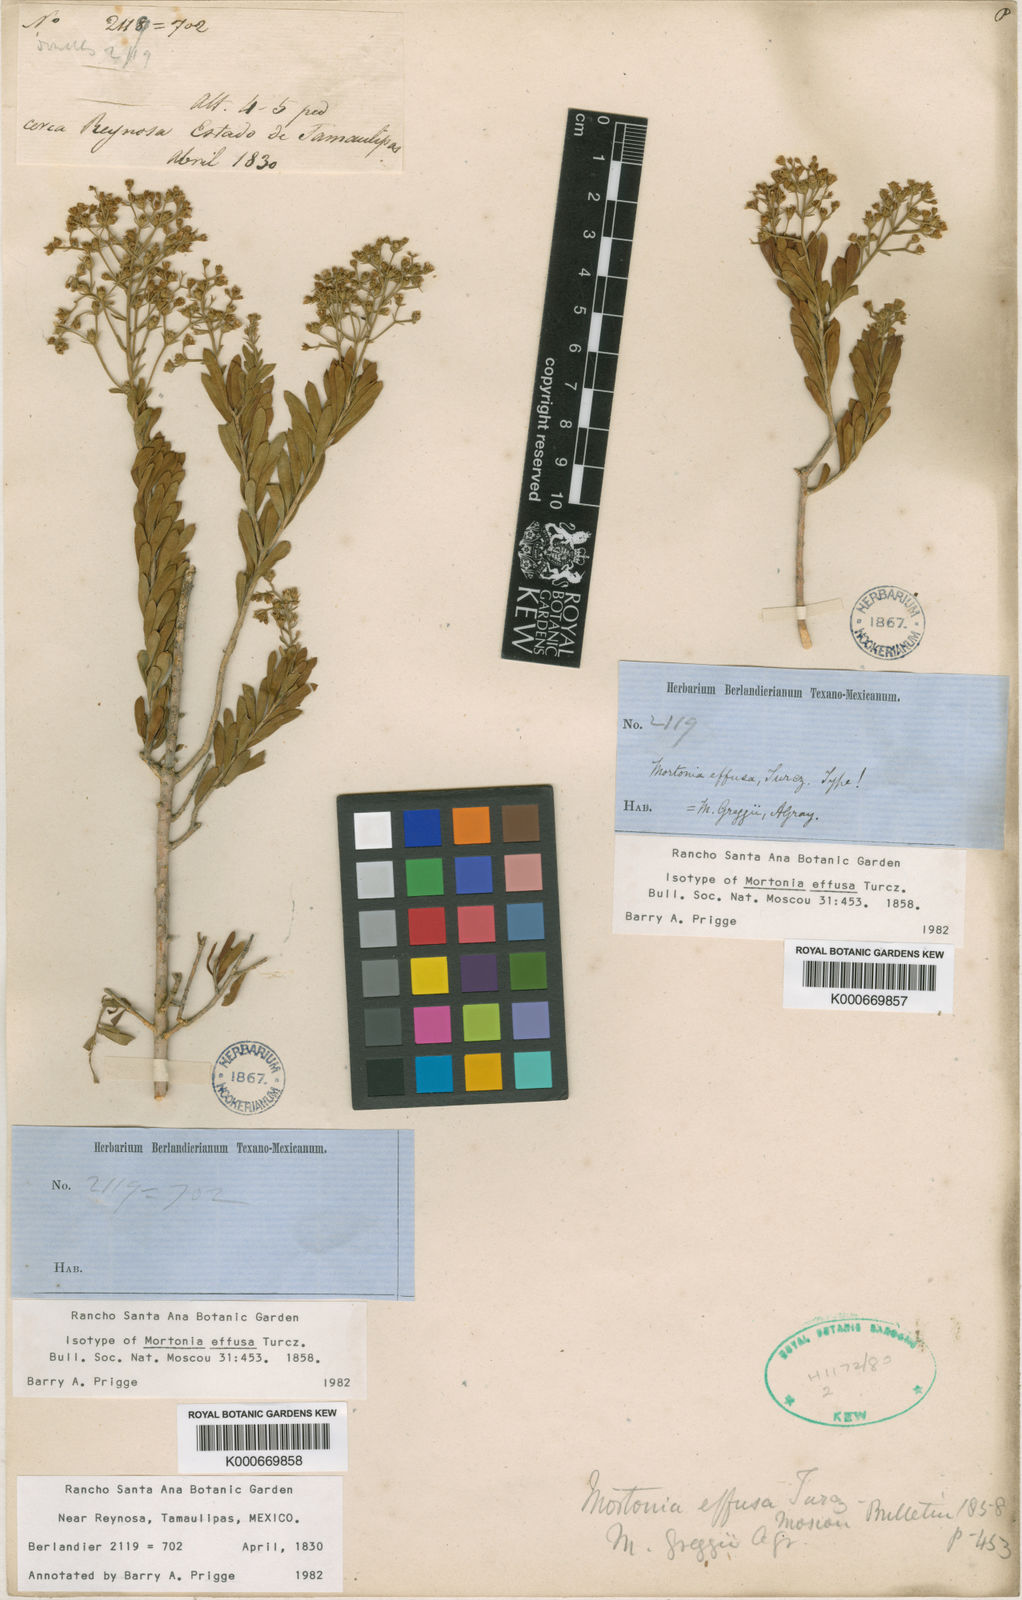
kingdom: Plantae
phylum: Tracheophyta
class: Magnoliopsida
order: Celastrales
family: Celastraceae
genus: Mortonia
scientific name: Mortonia greggii
